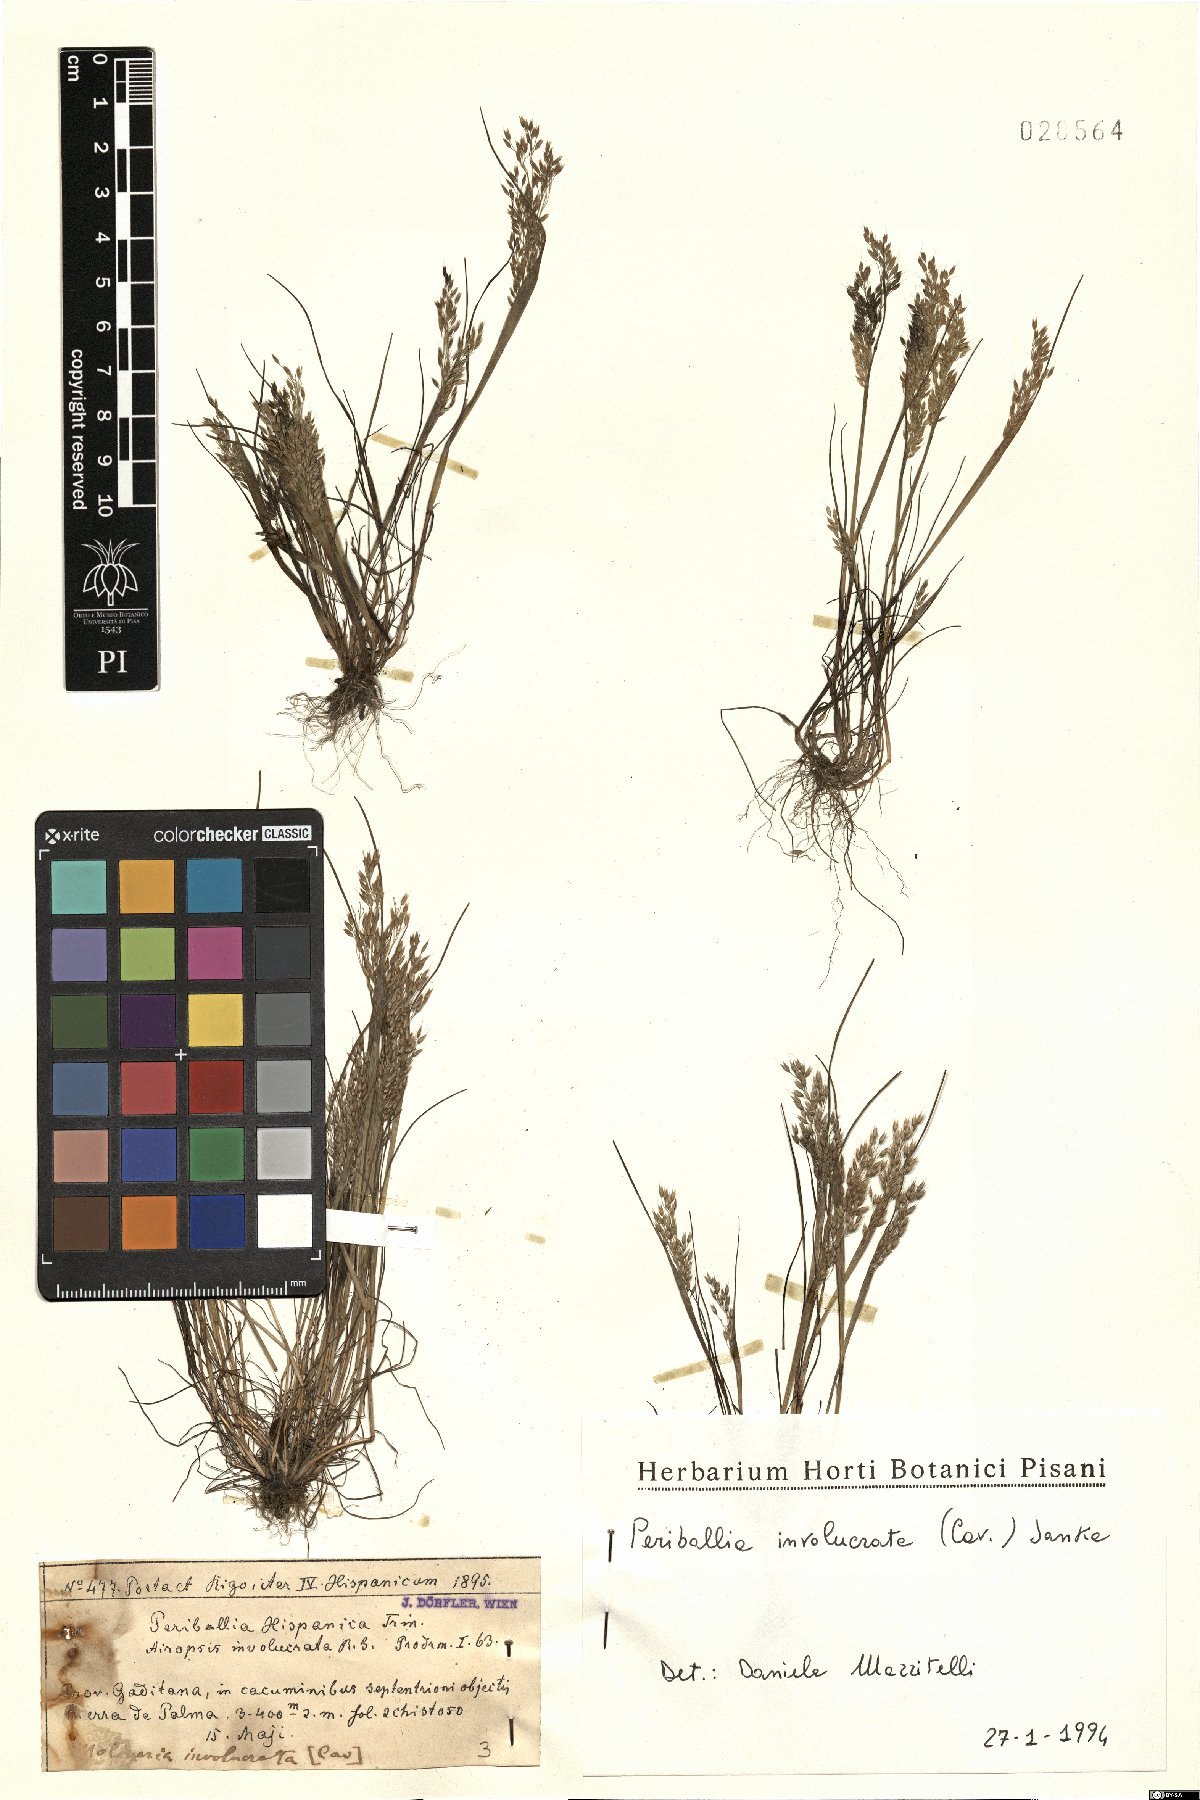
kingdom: Plantae
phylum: Tracheophyta
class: Liliopsida
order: Poales
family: Poaceae
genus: Periballia
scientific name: Periballia involucrata
